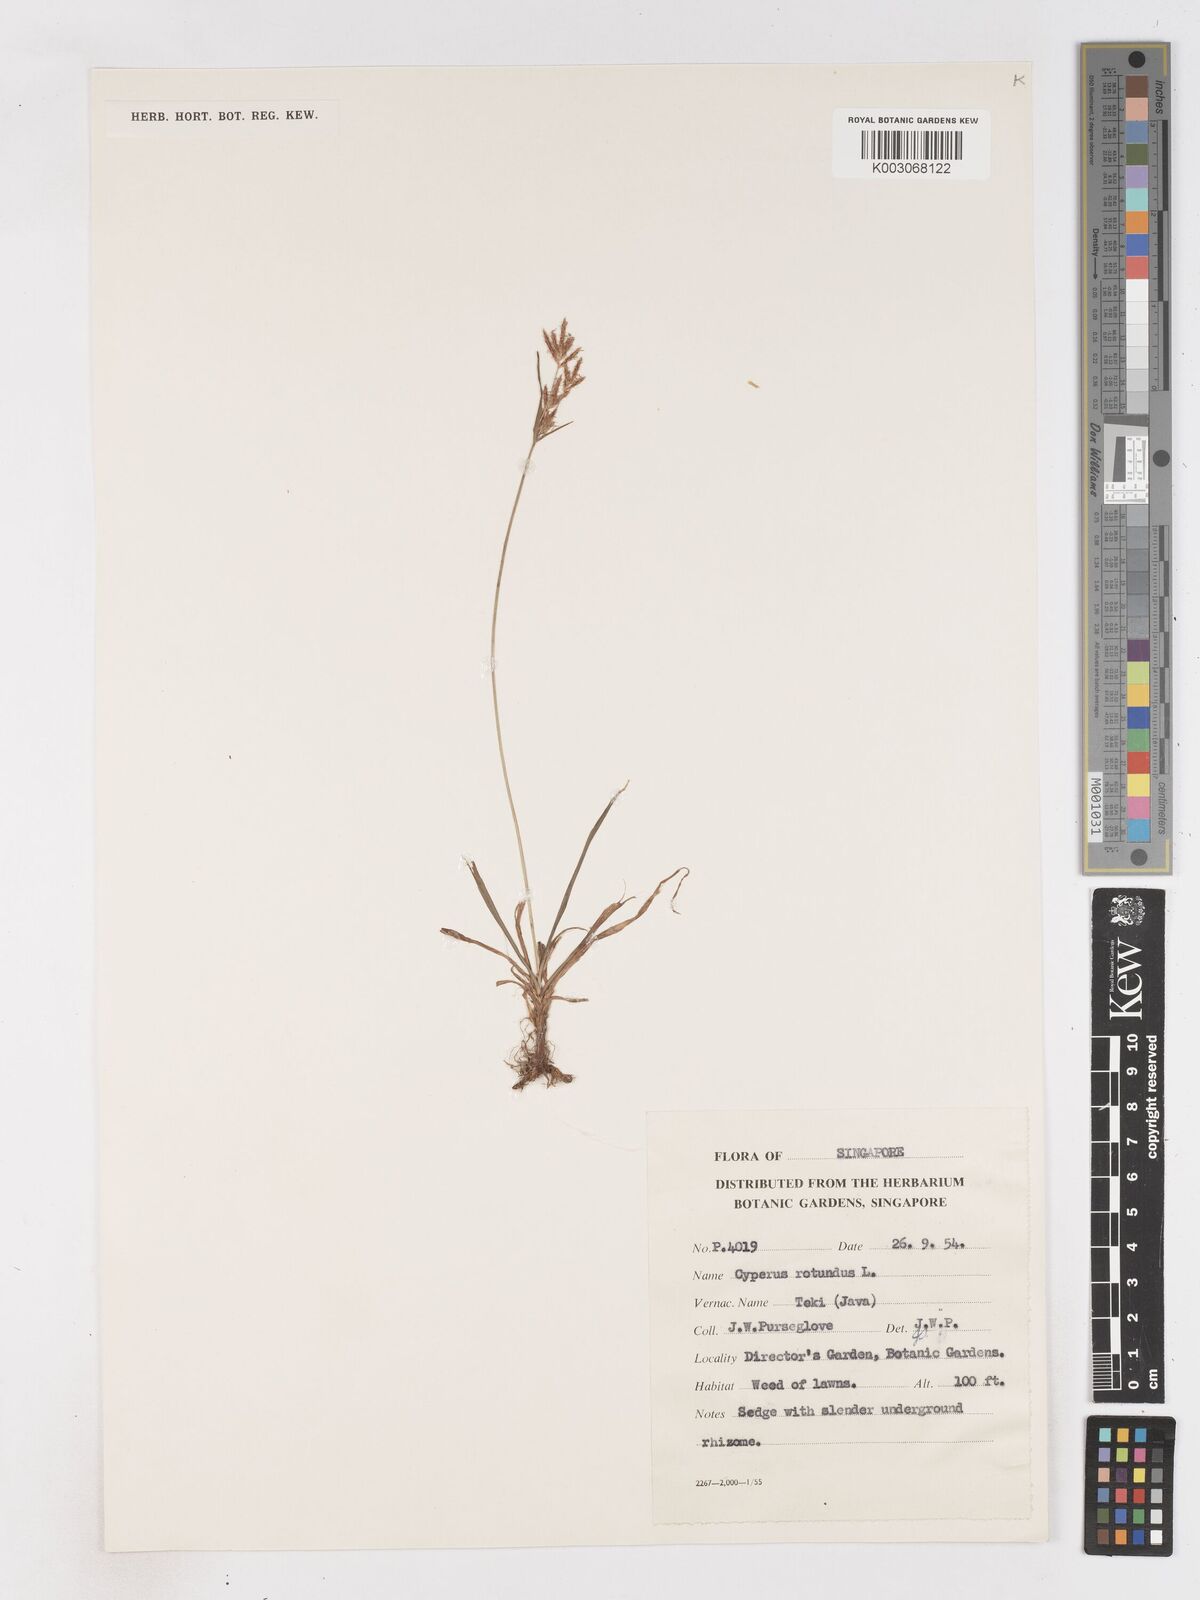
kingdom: Plantae
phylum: Tracheophyta
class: Liliopsida
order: Poales
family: Cyperaceae
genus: Cyperus
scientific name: Cyperus rotundus
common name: Nutgrass
